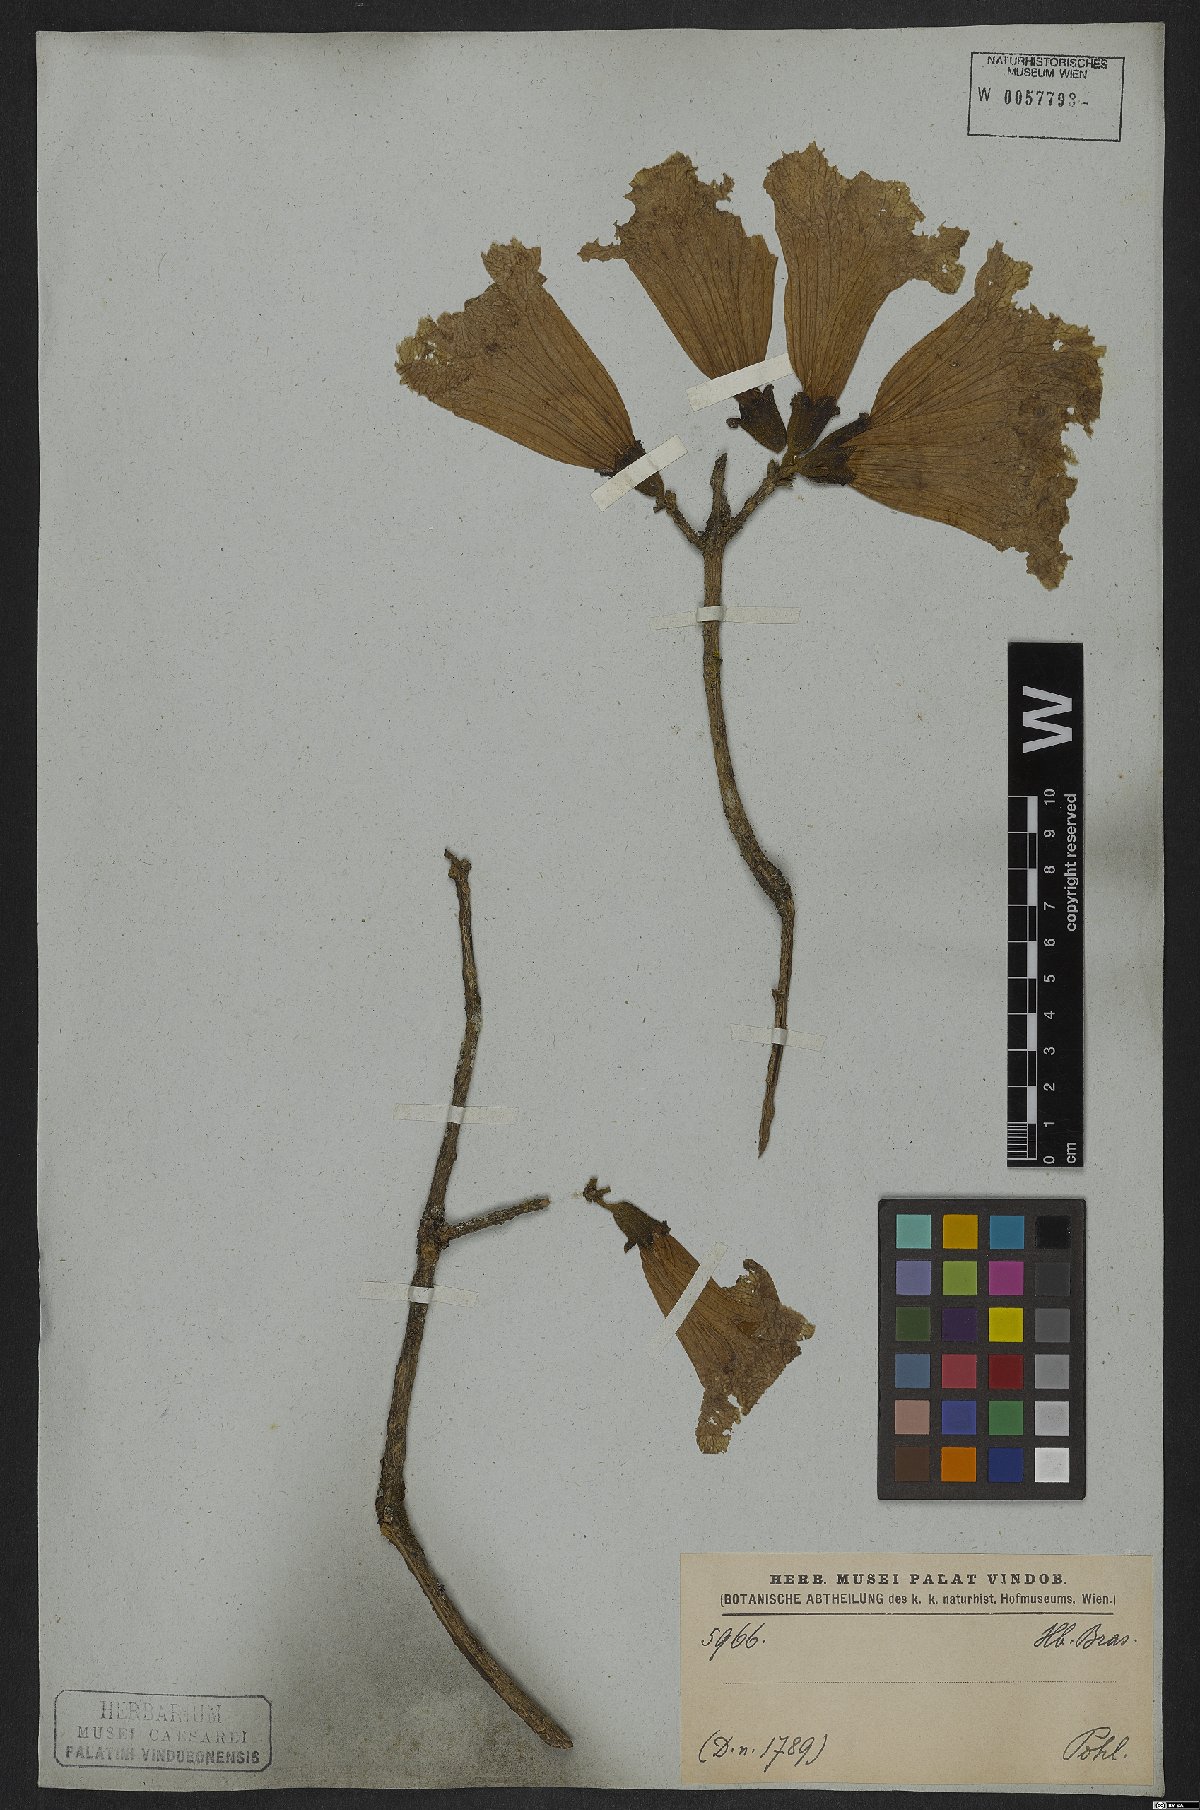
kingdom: Plantae
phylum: Tracheophyta
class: Magnoliopsida
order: Lamiales
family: Bignoniaceae
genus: Handroanthus
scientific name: Handroanthus vellosoi
